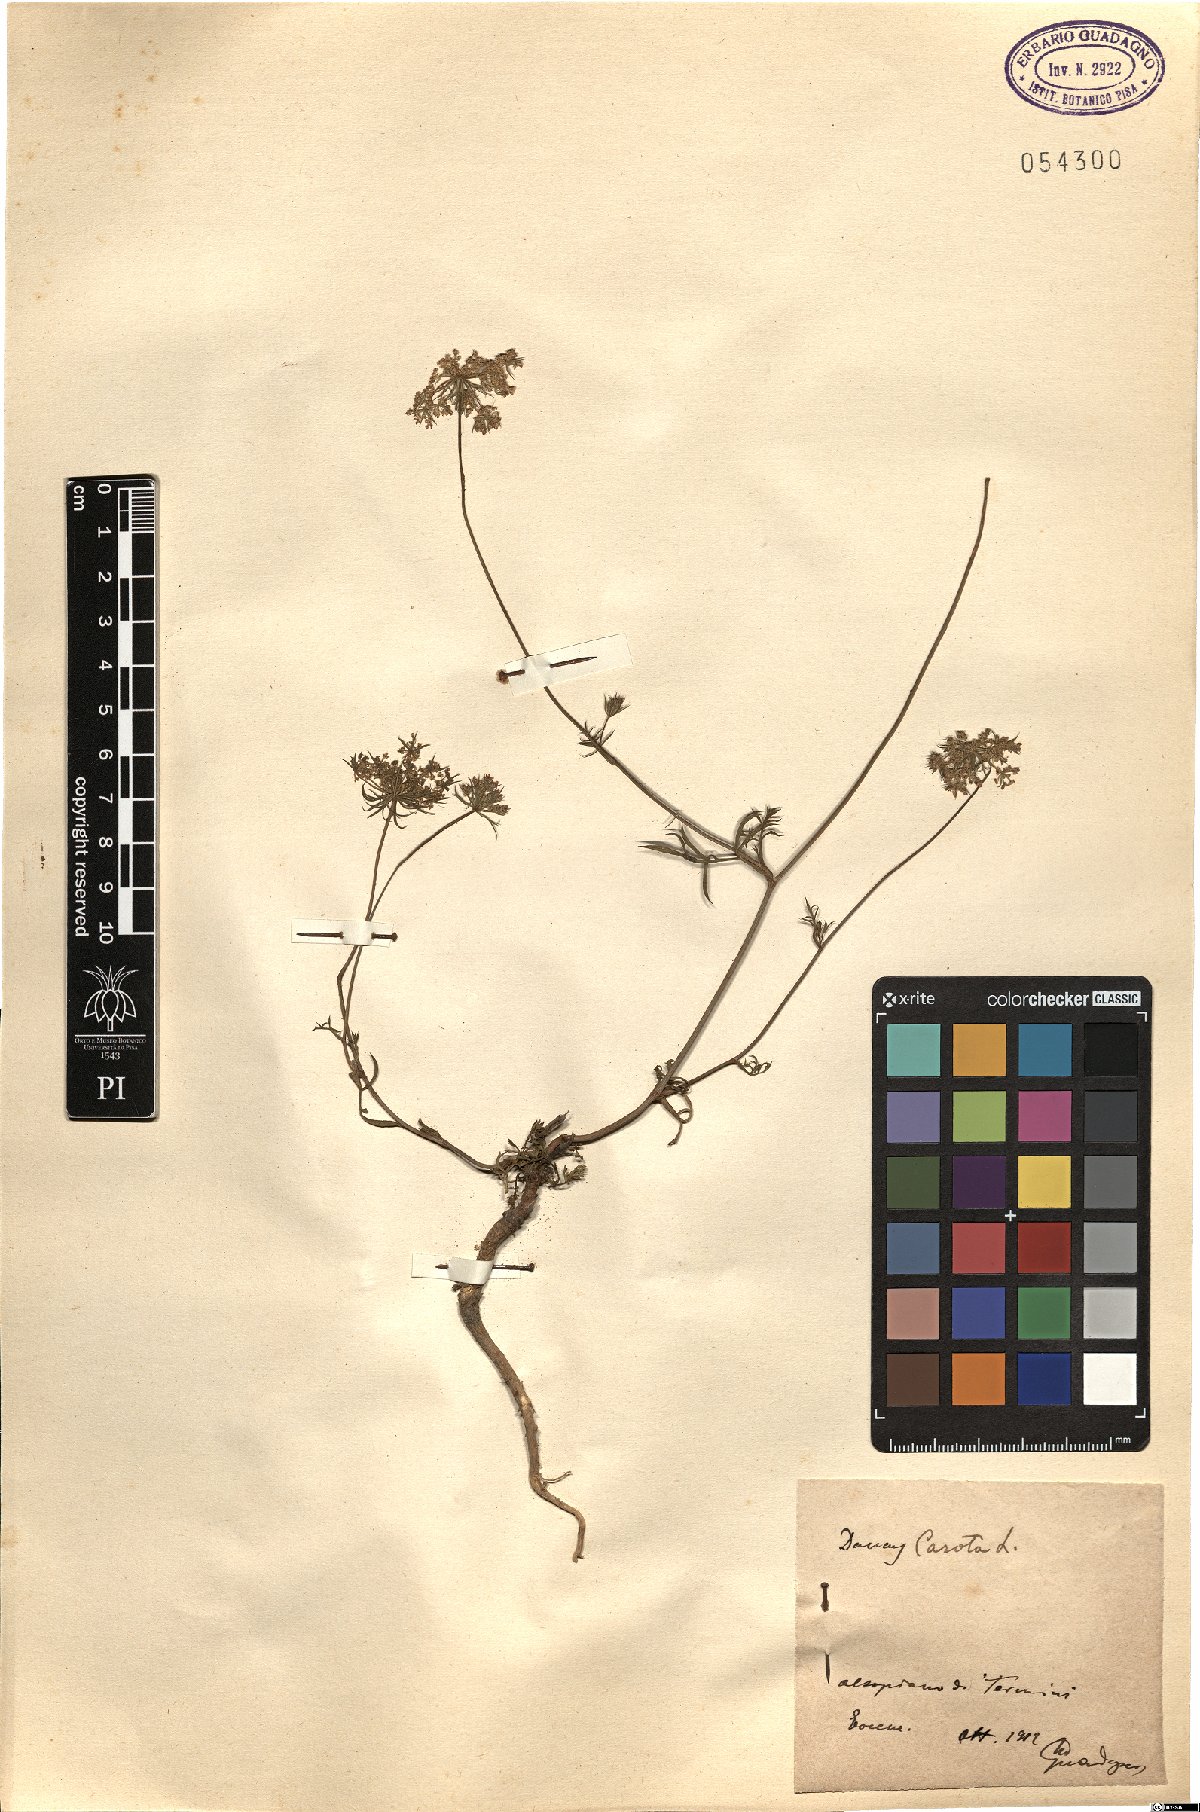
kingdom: Plantae
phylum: Tracheophyta
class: Magnoliopsida
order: Apiales
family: Apiaceae
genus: Daucus
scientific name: Daucus carota
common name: Wild carrot
